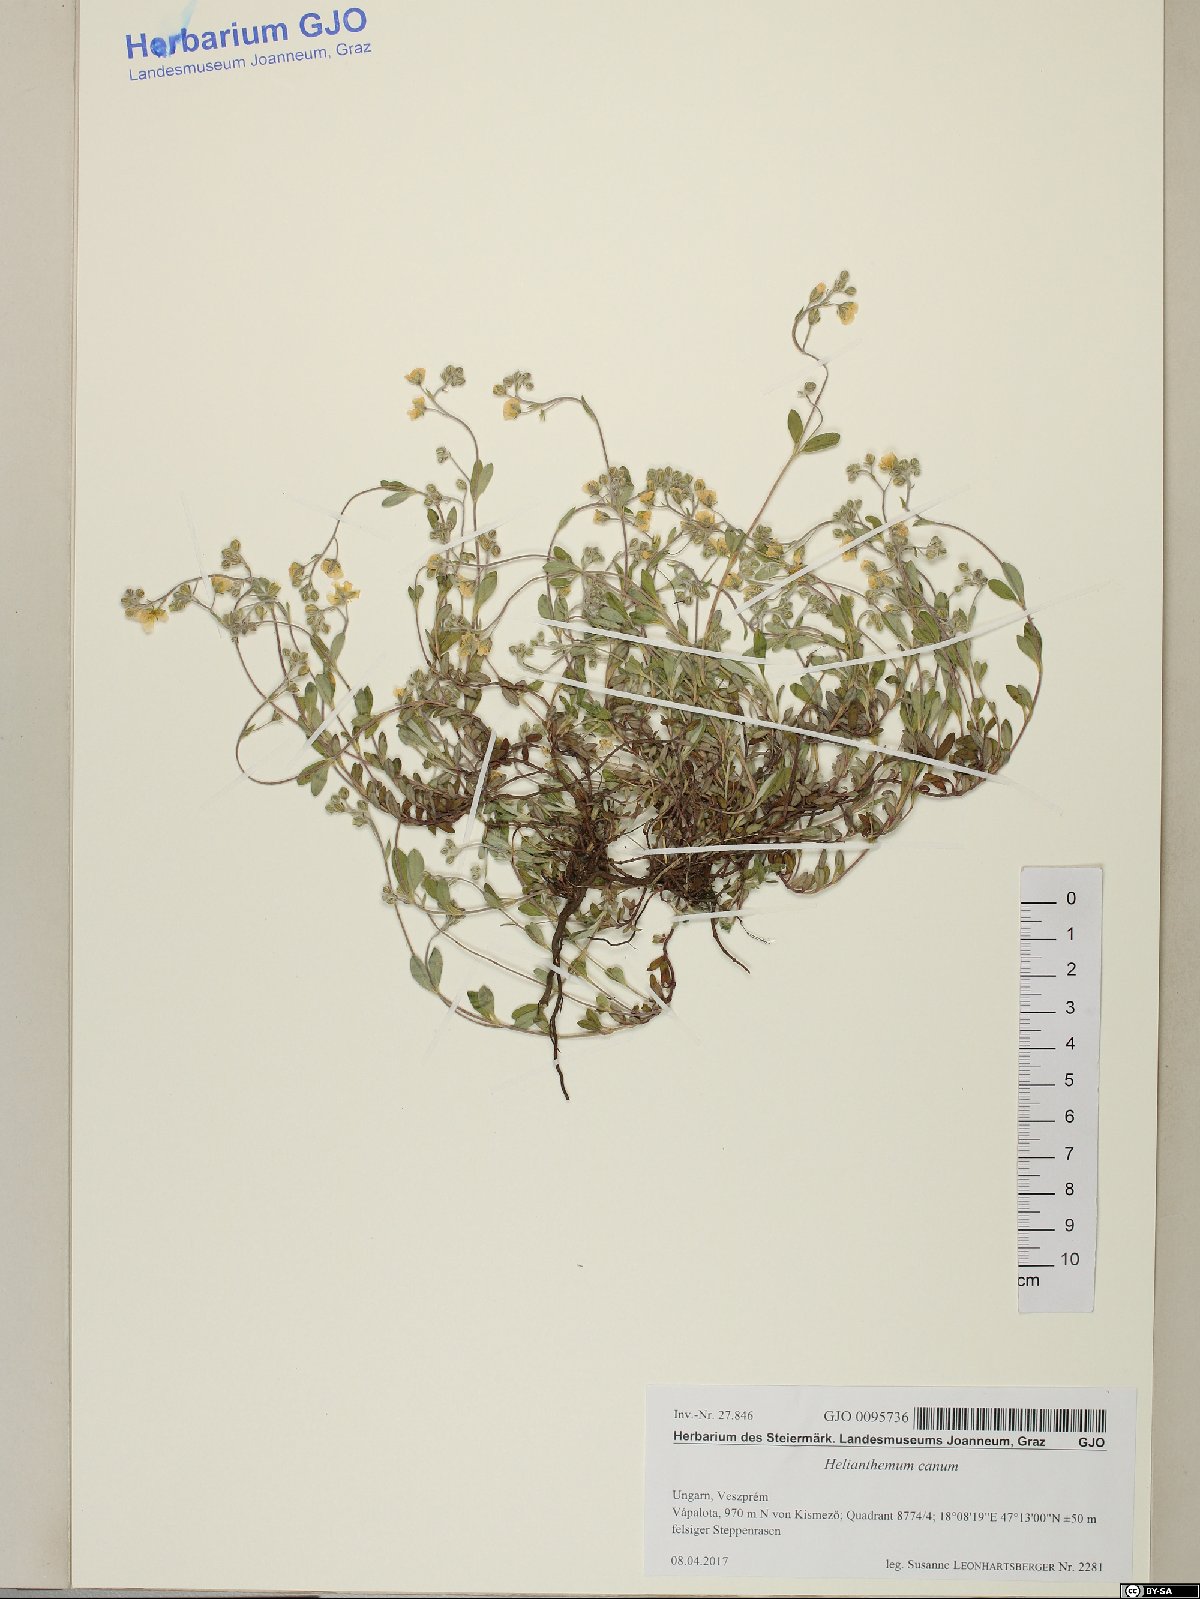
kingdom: Plantae
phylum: Tracheophyta
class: Magnoliopsida
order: Malvales
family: Cistaceae
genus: Helianthemum
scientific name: Helianthemum canum
